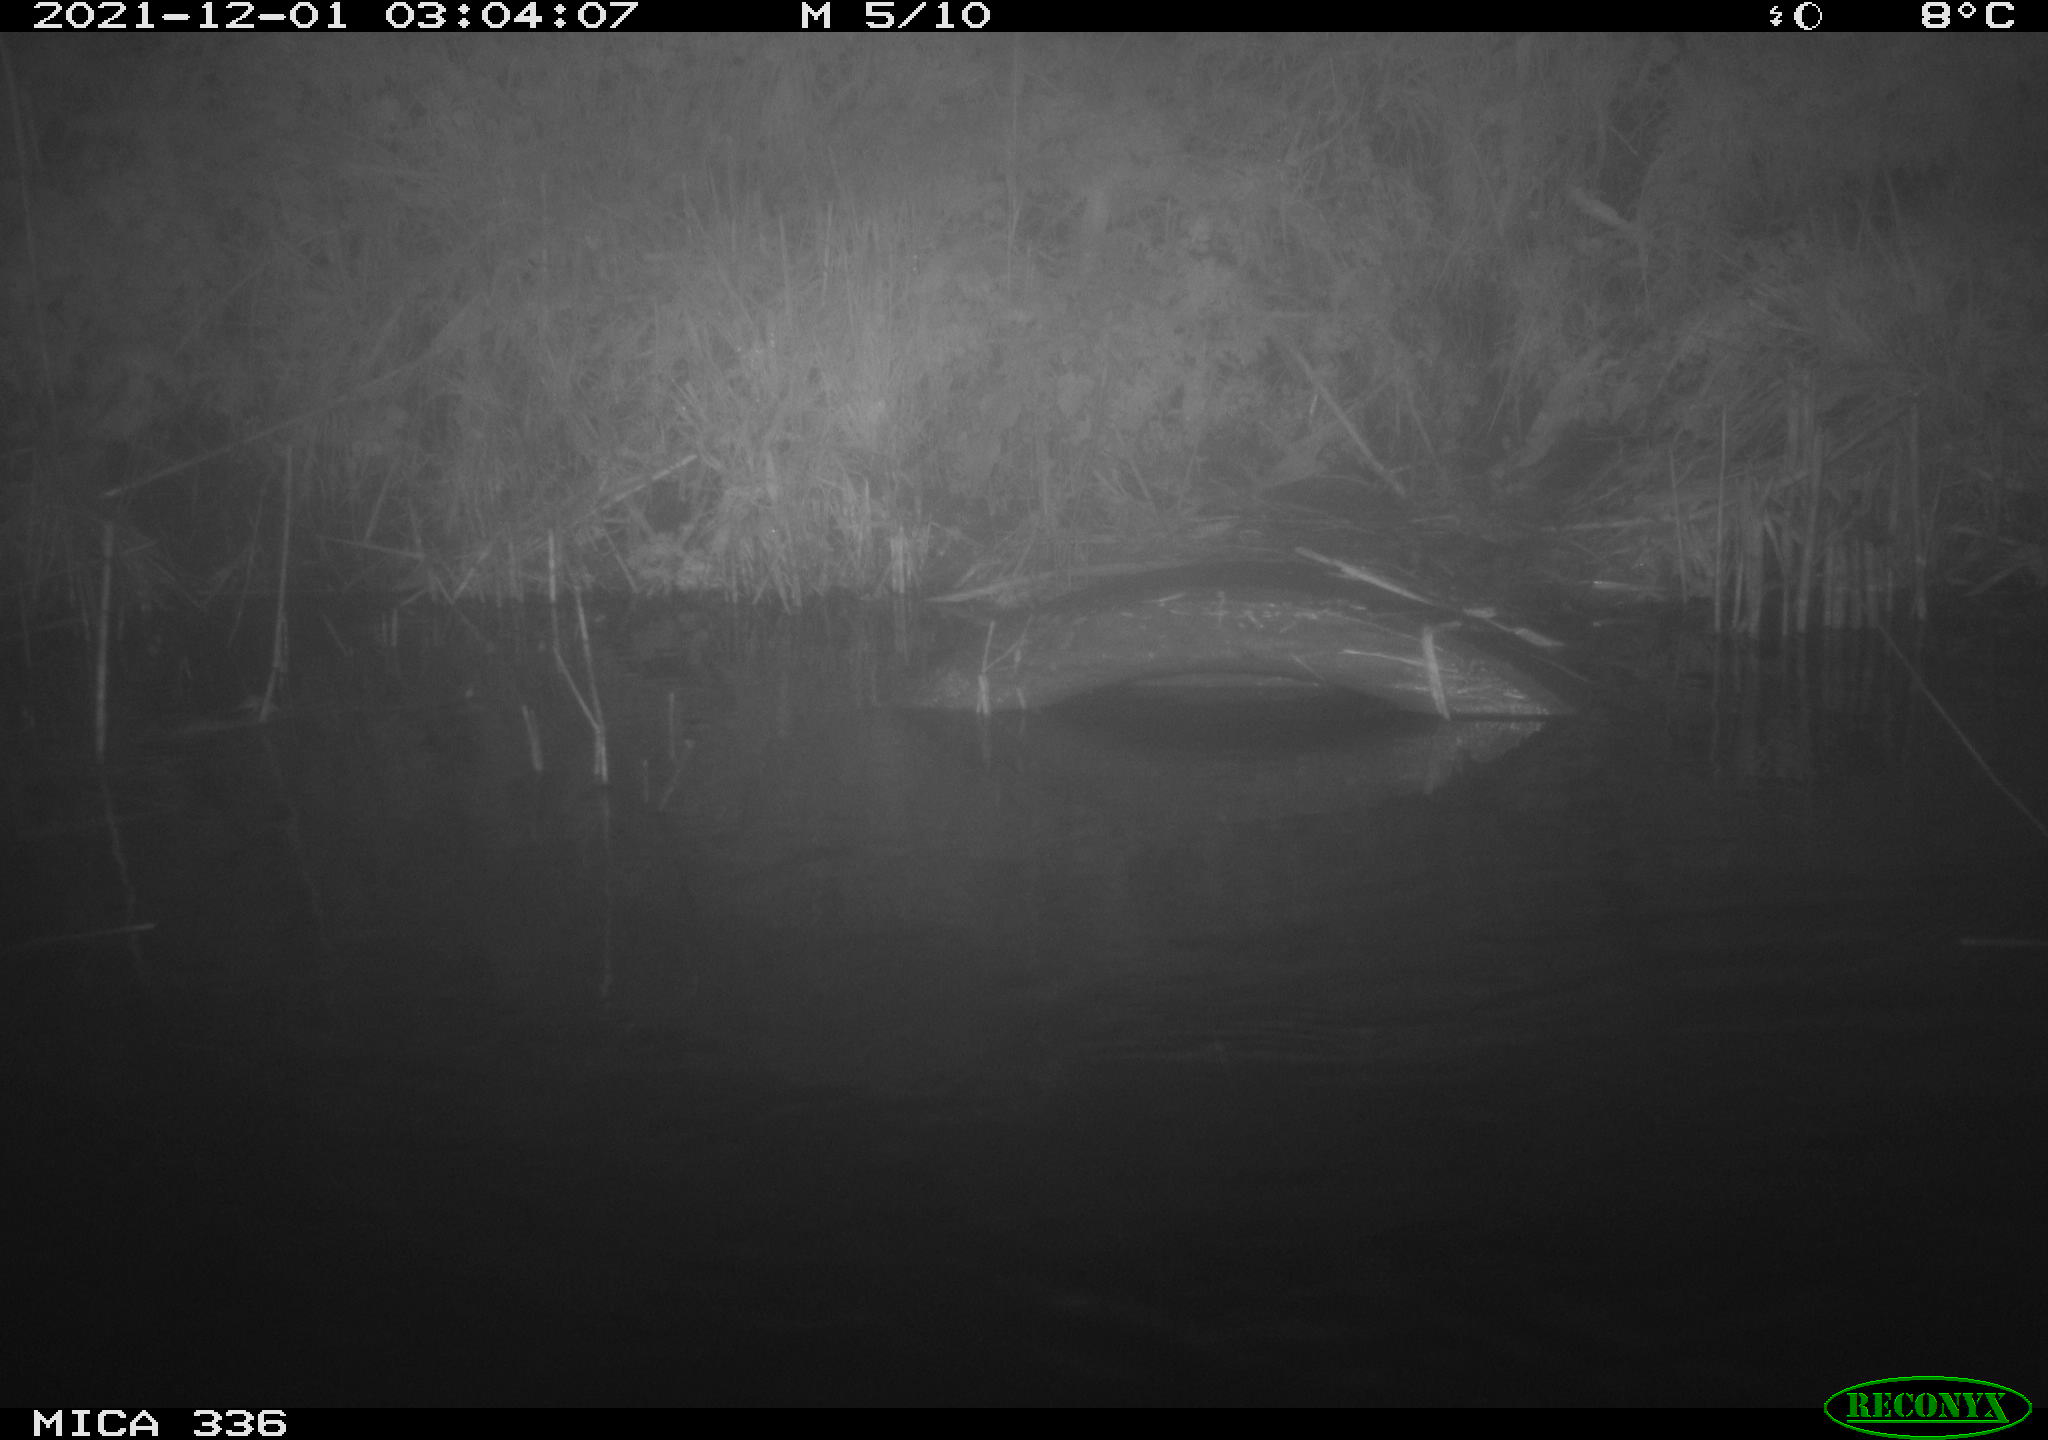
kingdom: Animalia
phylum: Chordata
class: Mammalia
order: Rodentia
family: Cricetidae
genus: Ondatra
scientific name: Ondatra zibethicus
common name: Muskrat
